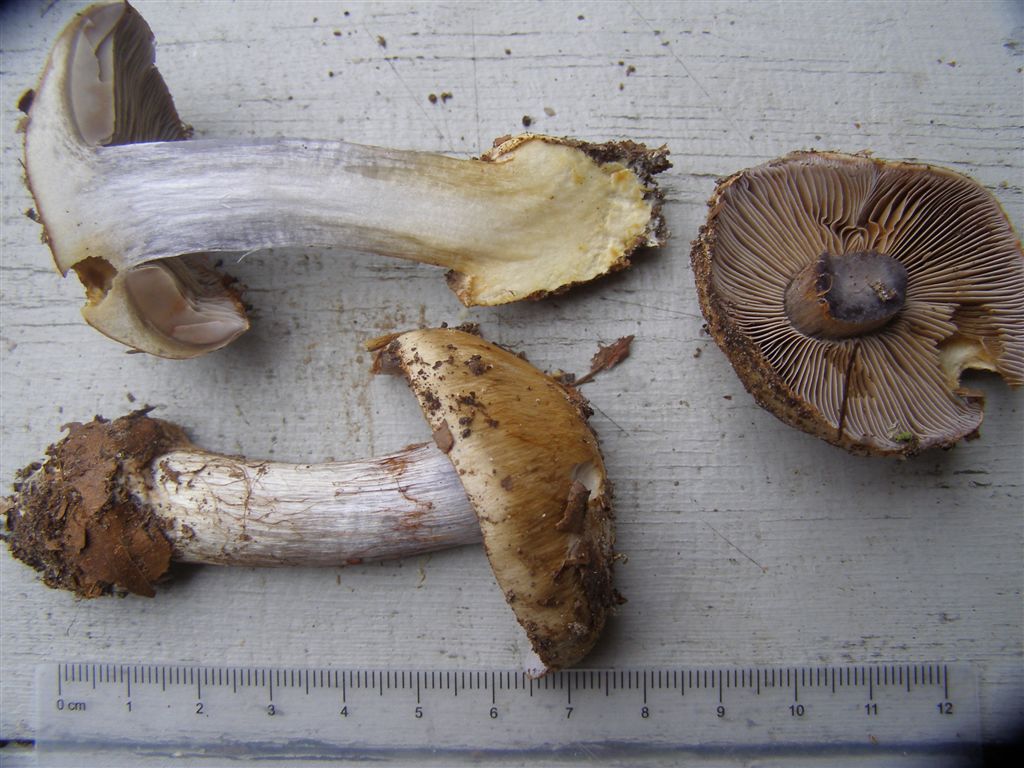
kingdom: Fungi
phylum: Basidiomycota
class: Agaricomycetes
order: Agaricales
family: Cortinariaceae
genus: Phlegmacium
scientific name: Phlegmacium luhmannii
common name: musegrå slørhat
